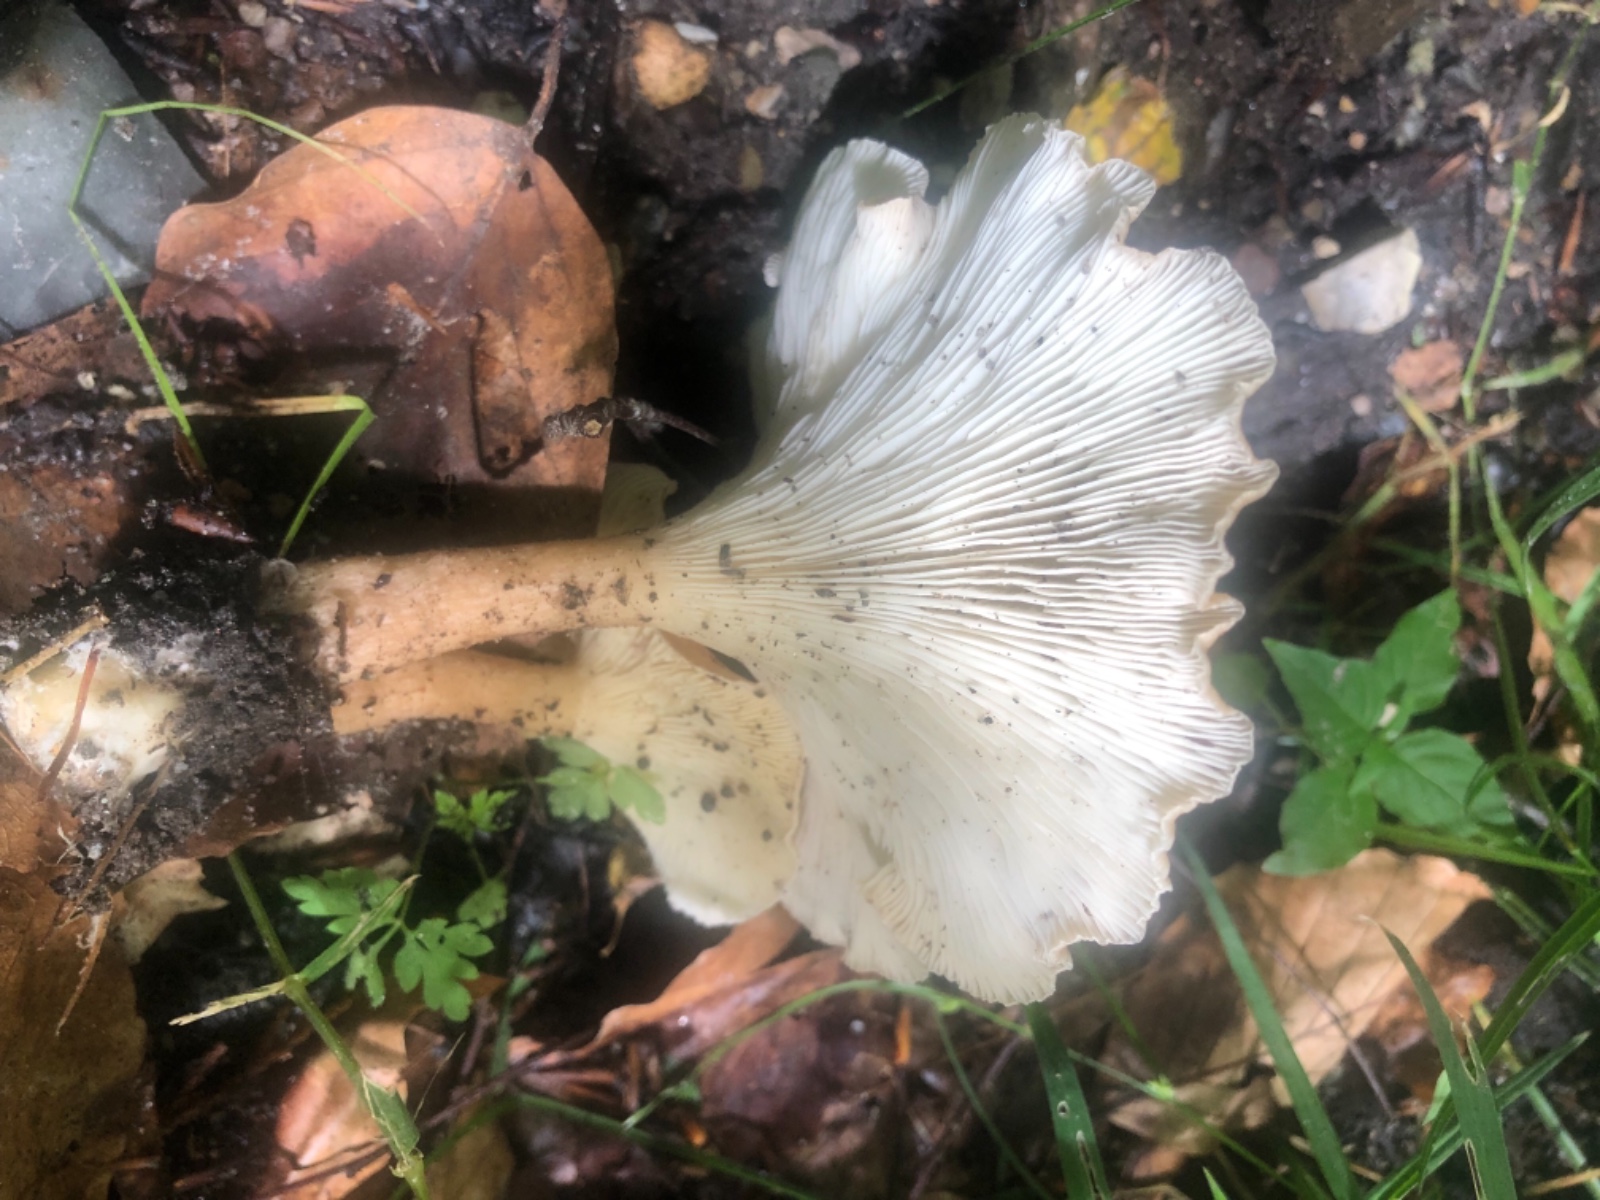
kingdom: Fungi
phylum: Basidiomycota
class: Agaricomycetes
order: Agaricales
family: Tricholomataceae
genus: Infundibulicybe
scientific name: Infundibulicybe gibba
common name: almindelig tragthat
